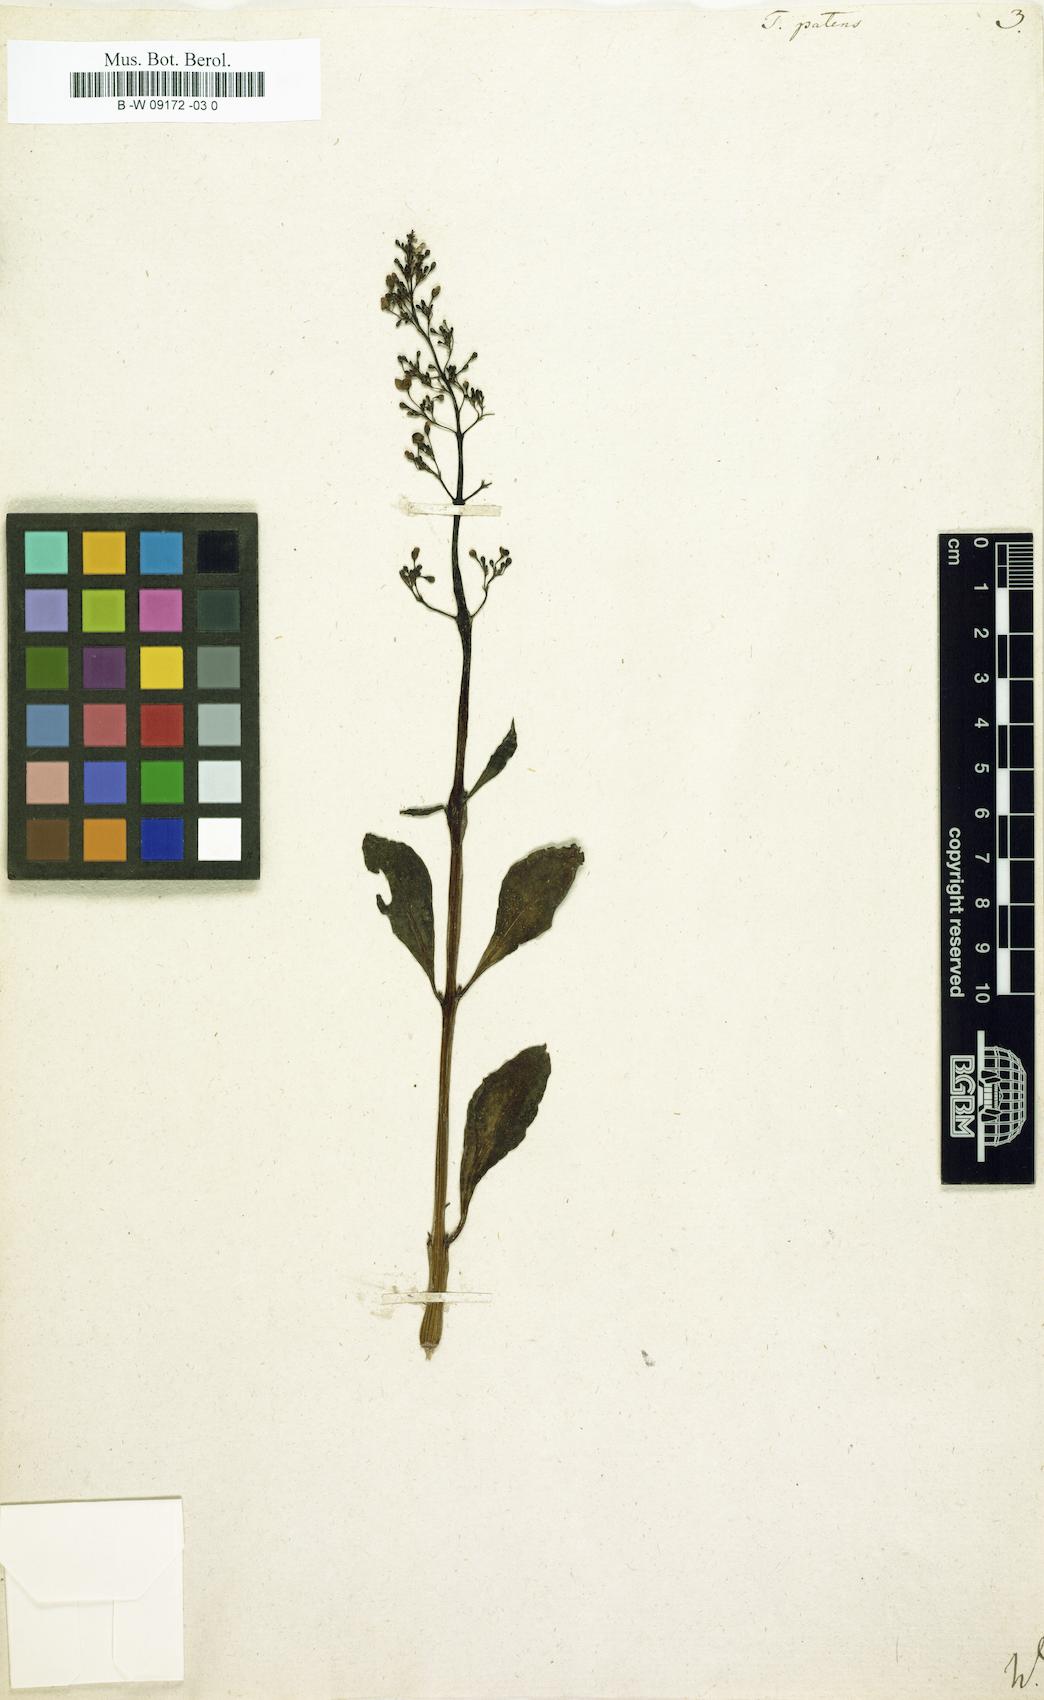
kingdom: Plantae
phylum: Tracheophyta
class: Magnoliopsida
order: Caryophyllales
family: Talinaceae
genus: Talinum
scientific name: Talinum paniculatum
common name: Jewels of opar
